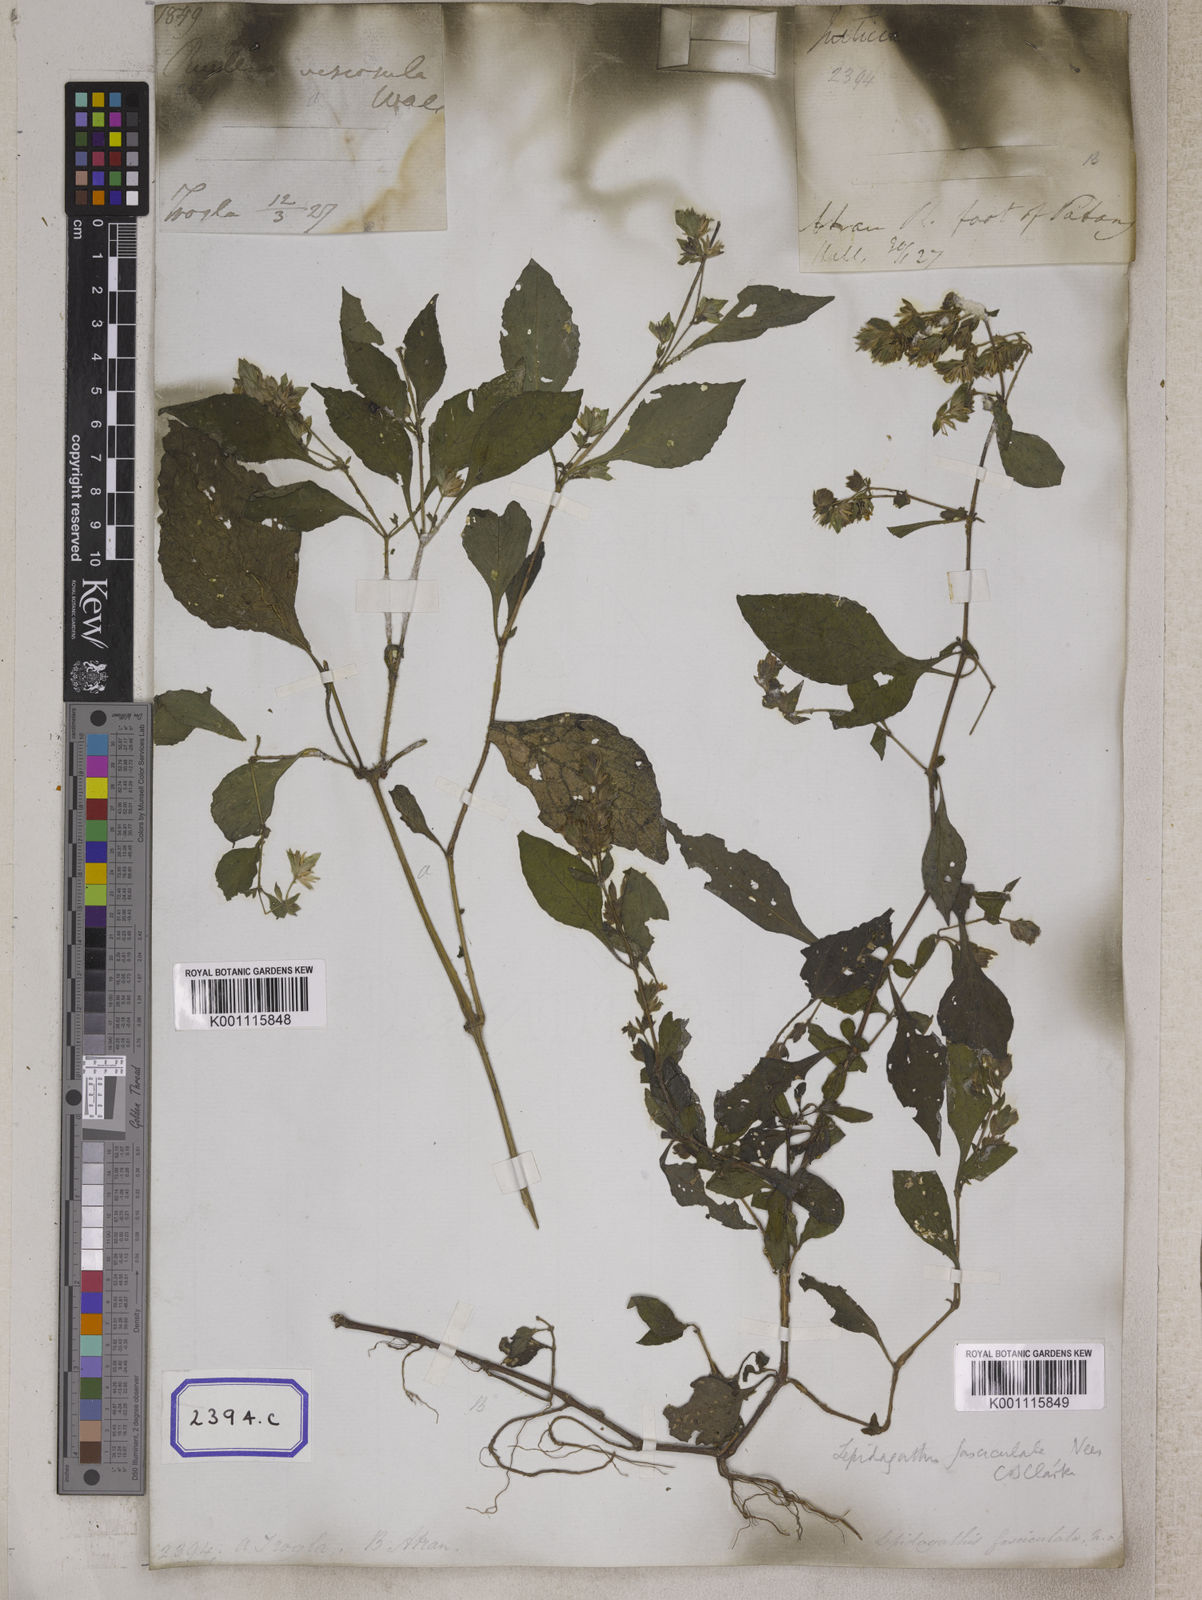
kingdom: Plantae
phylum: Tracheophyta
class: Magnoliopsida
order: Lamiales
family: Acanthaceae
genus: Strobilanthes
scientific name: Strobilanthes pavala
